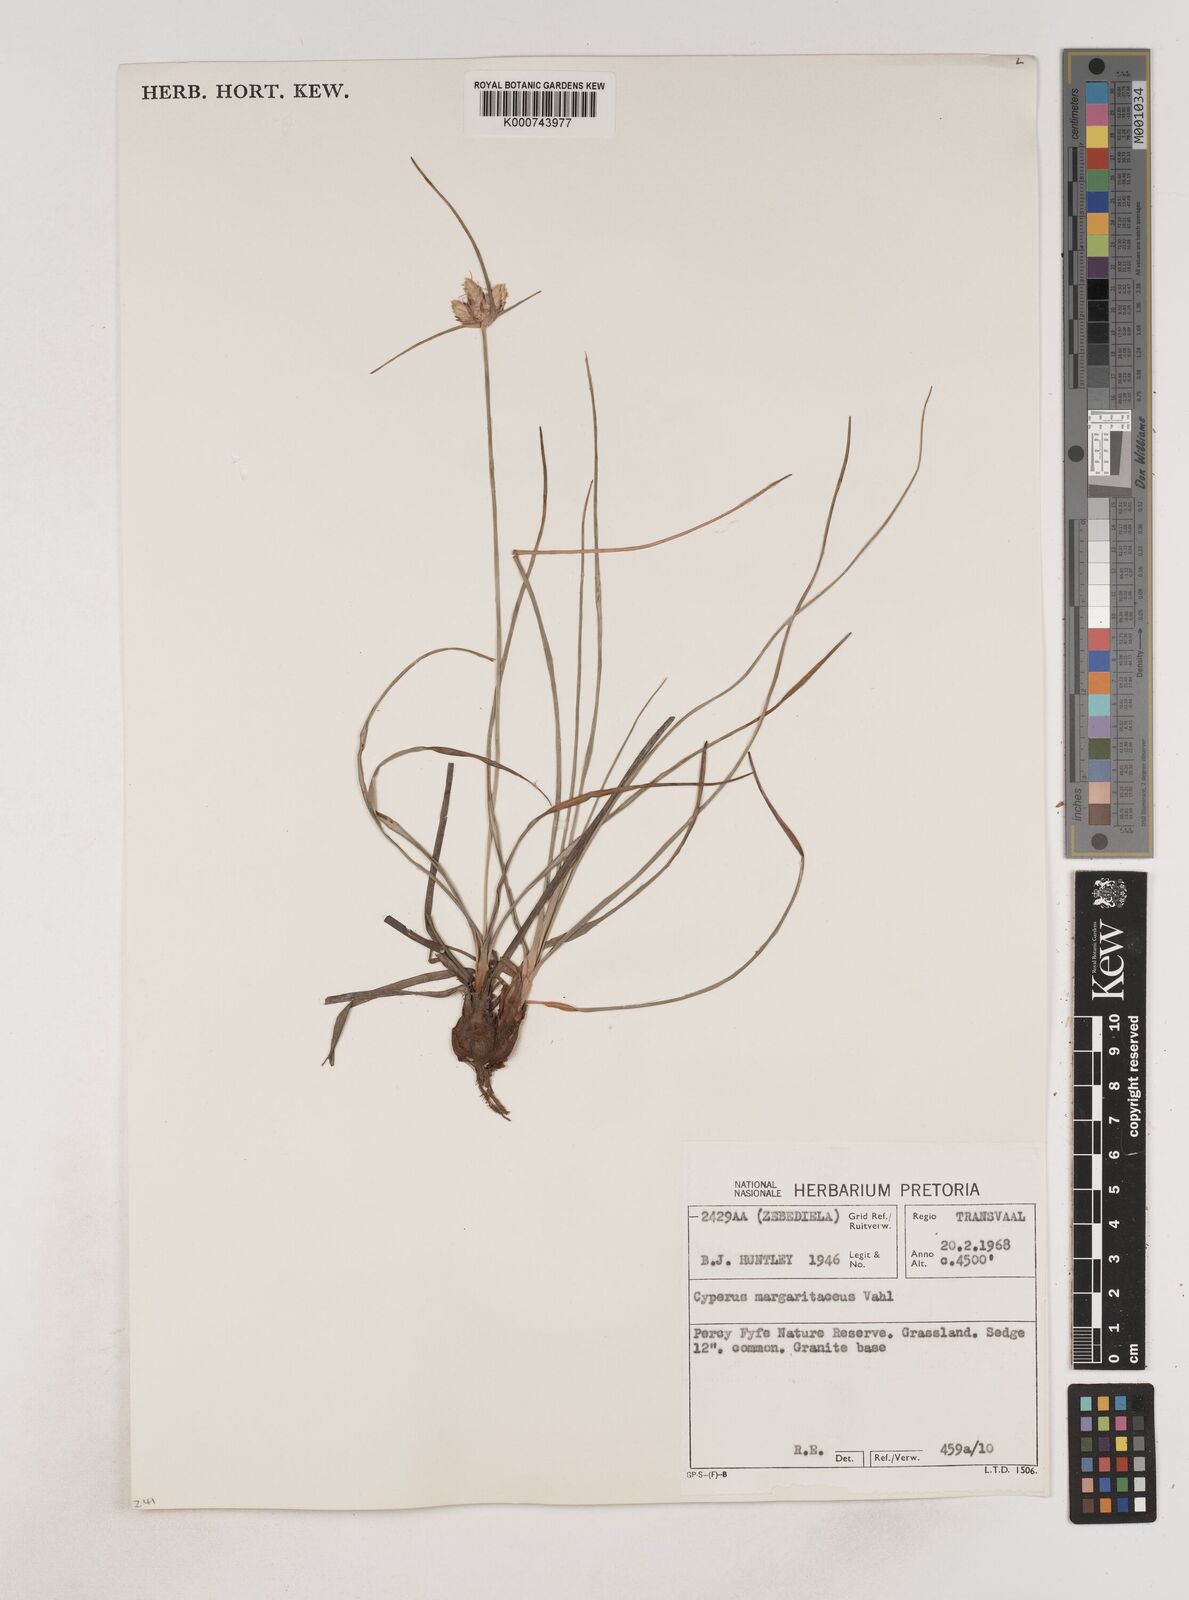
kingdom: Plantae
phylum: Tracheophyta
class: Liliopsida
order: Poales
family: Cyperaceae
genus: Cyperus
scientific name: Cyperus margaritaceus
